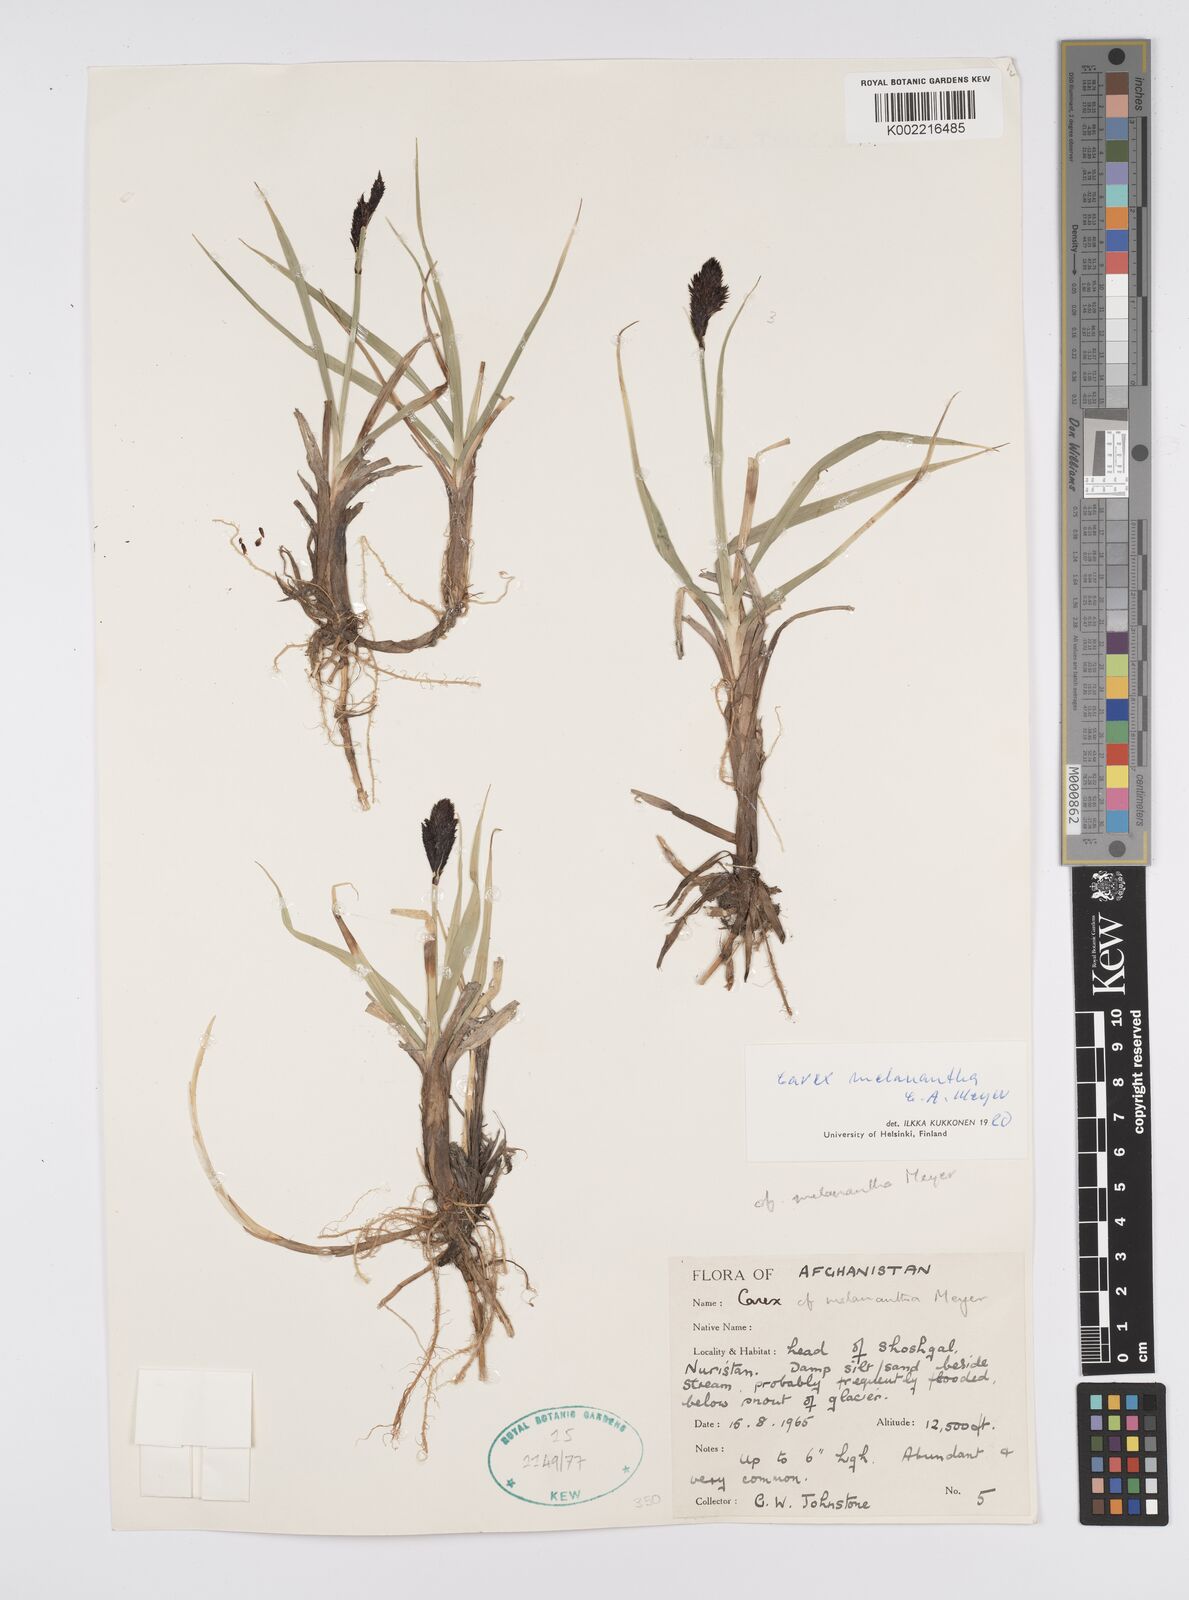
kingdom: Plantae
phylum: Tracheophyta
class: Liliopsida
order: Poales
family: Cyperaceae
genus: Carex
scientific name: Carex melanantha
